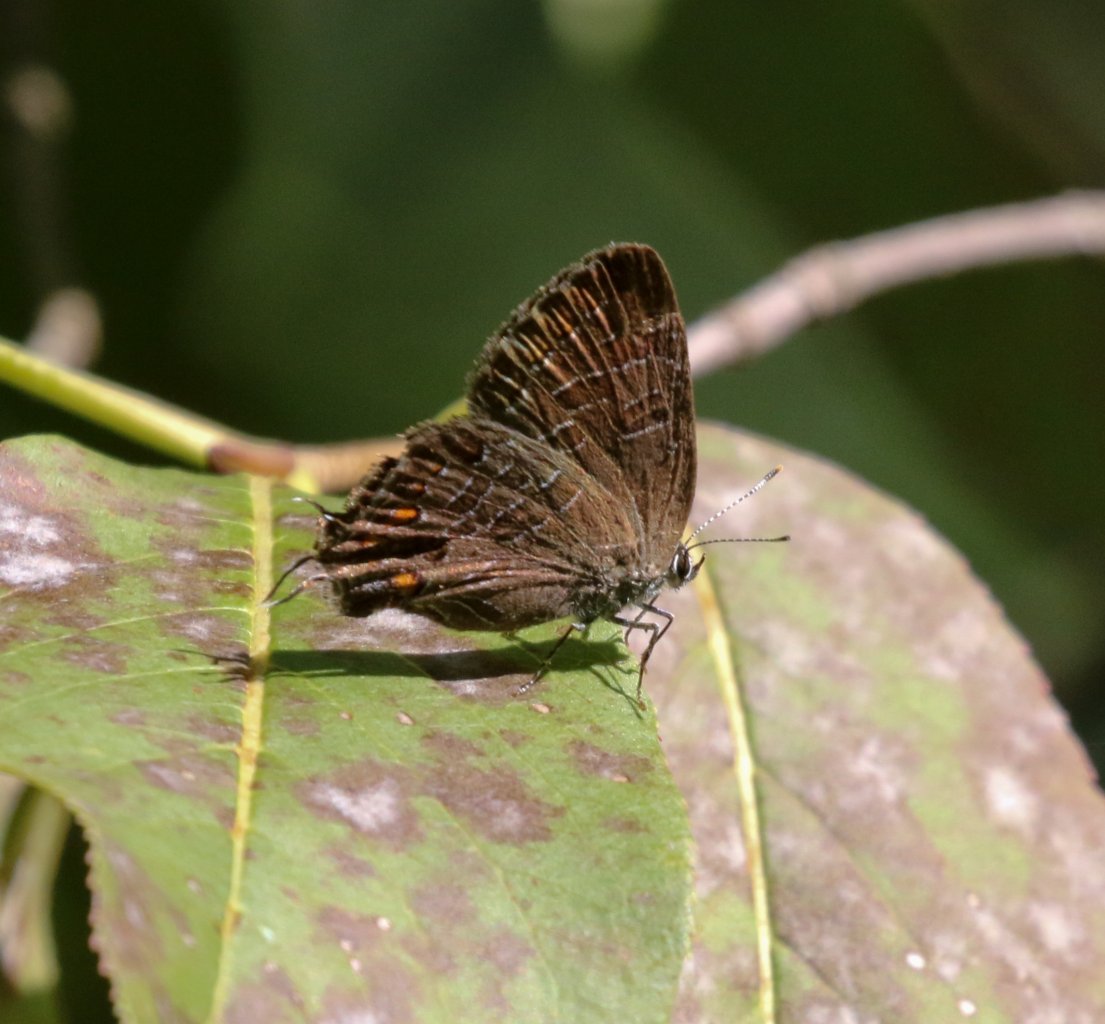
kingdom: Animalia
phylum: Arthropoda
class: Insecta
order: Lepidoptera
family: Lycaenidae
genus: Satyrium
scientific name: Satyrium liparops
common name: Striped Hairstreak
